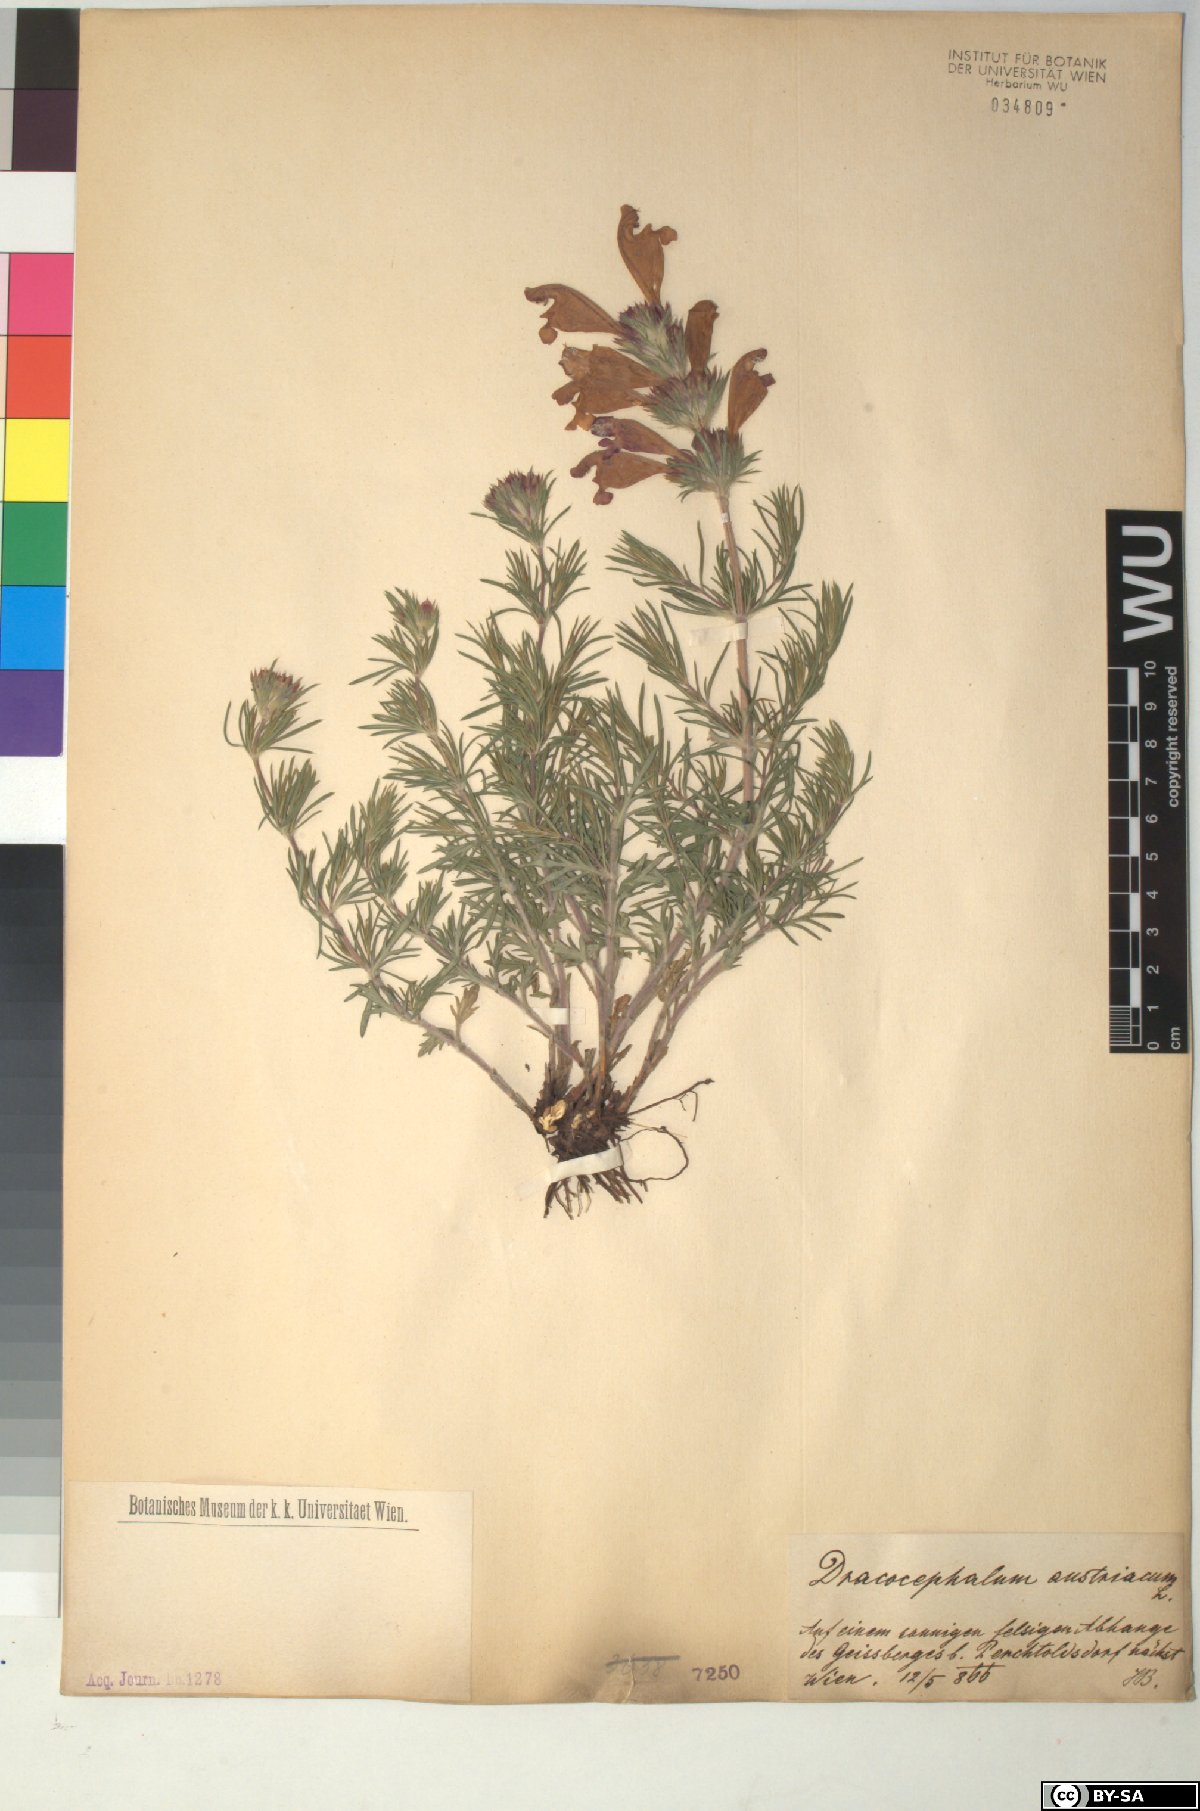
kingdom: Plantae
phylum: Tracheophyta
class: Magnoliopsida
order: Lamiales
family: Lamiaceae
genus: Dracocephalum
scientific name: Dracocephalum austriacum
